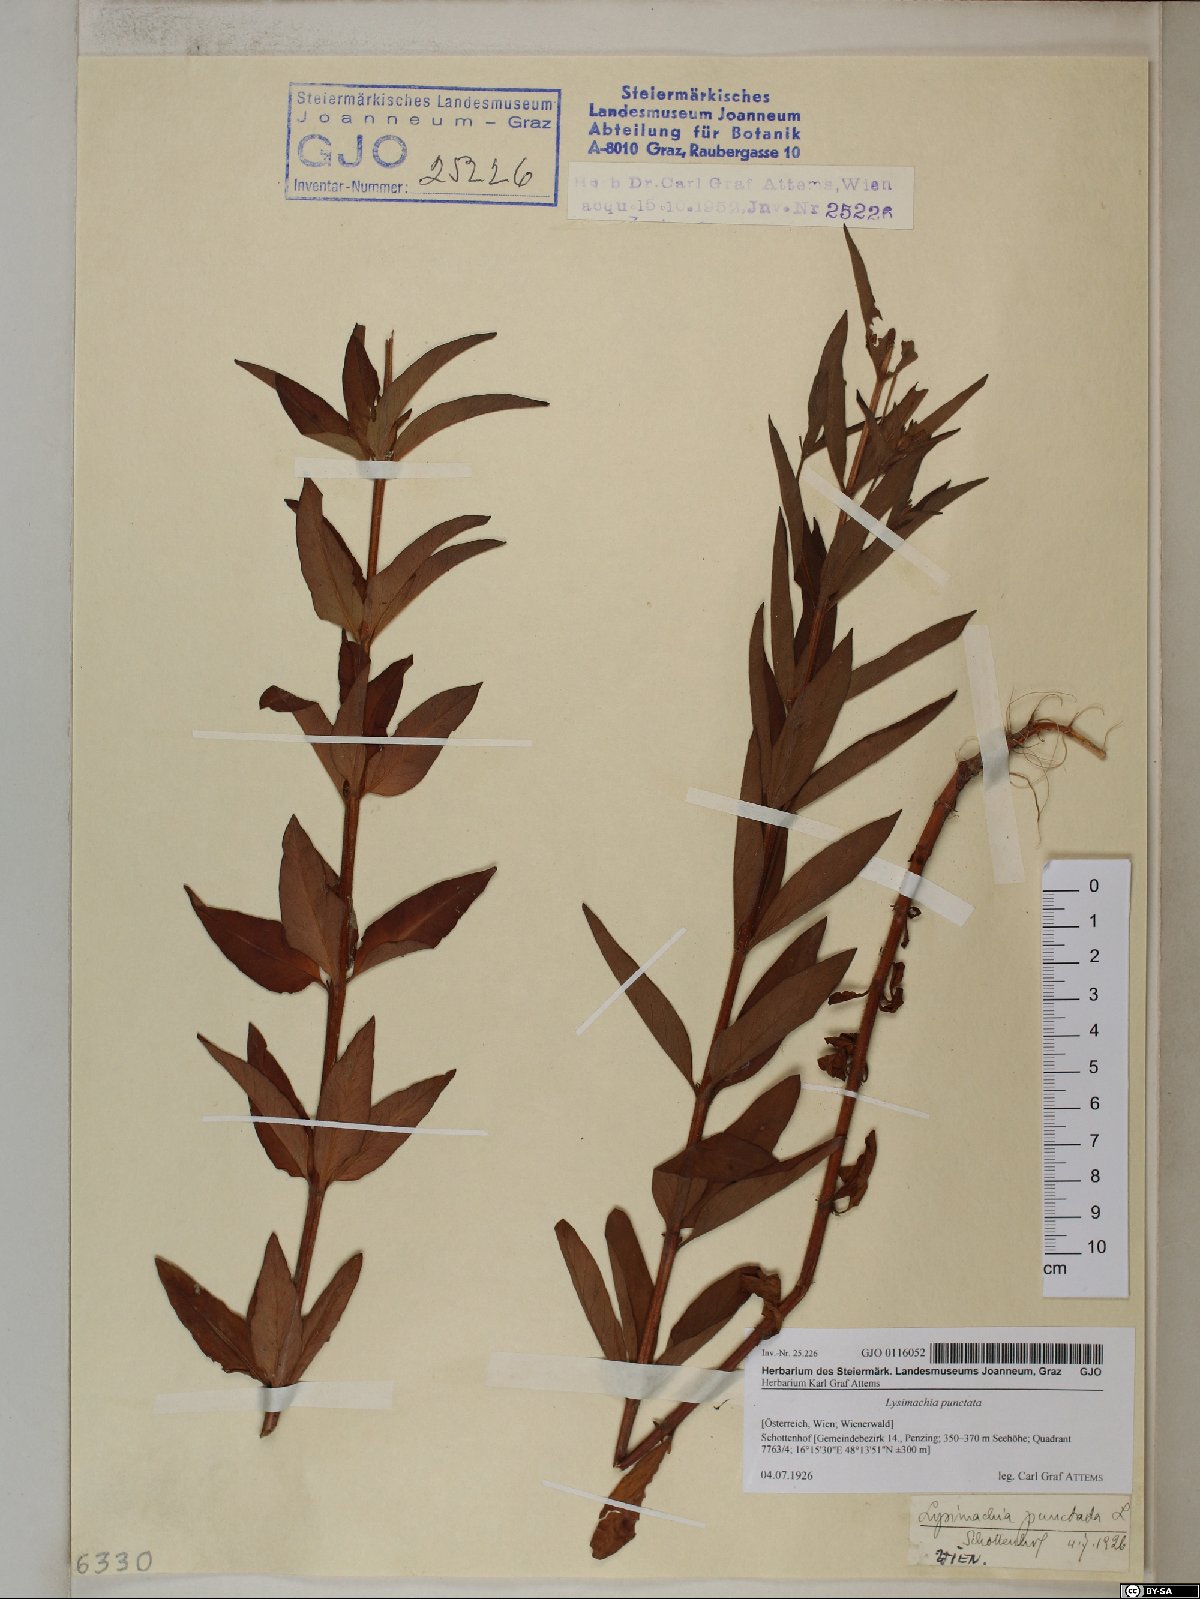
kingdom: Plantae
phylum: Tracheophyta
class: Magnoliopsida
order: Ericales
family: Primulaceae
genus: Lysimachia
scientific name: Lysimachia punctata
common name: Dotted loosestrife
